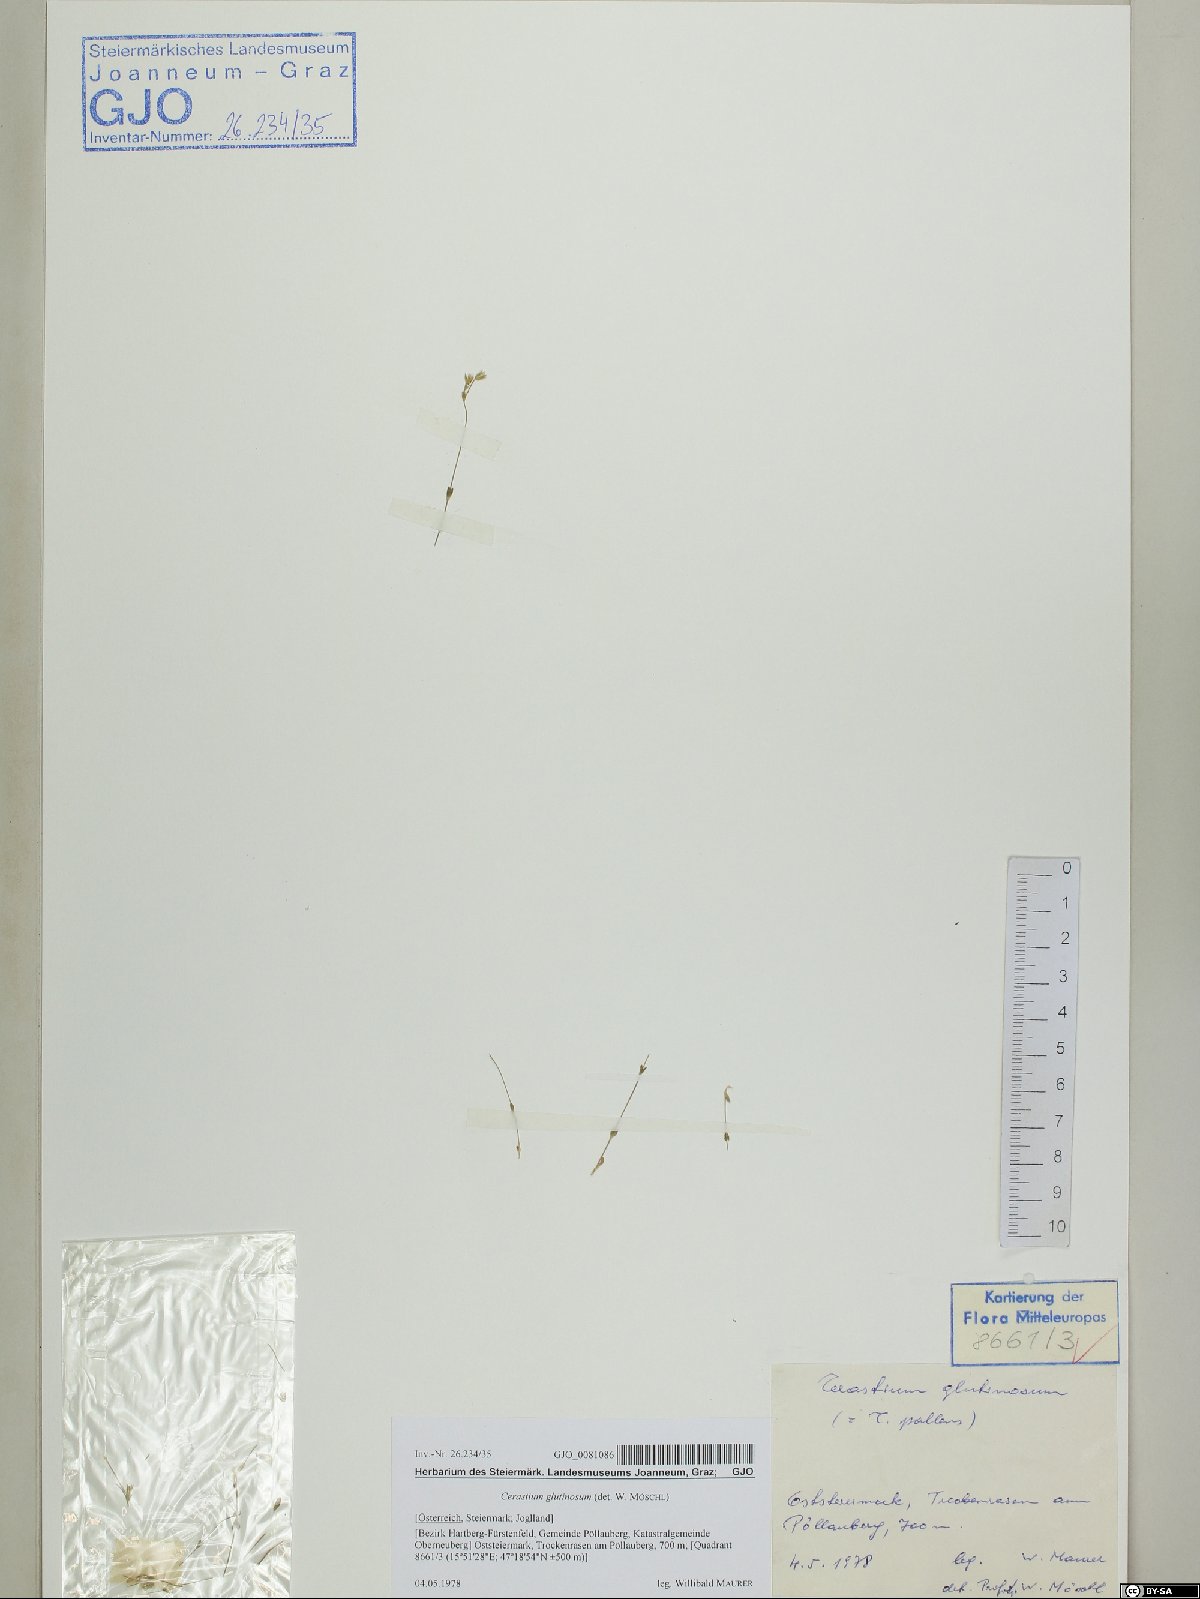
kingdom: Plantae
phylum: Tracheophyta
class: Magnoliopsida
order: Caryophyllales
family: Caryophyllaceae
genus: Cerastium
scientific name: Cerastium glutinosum
